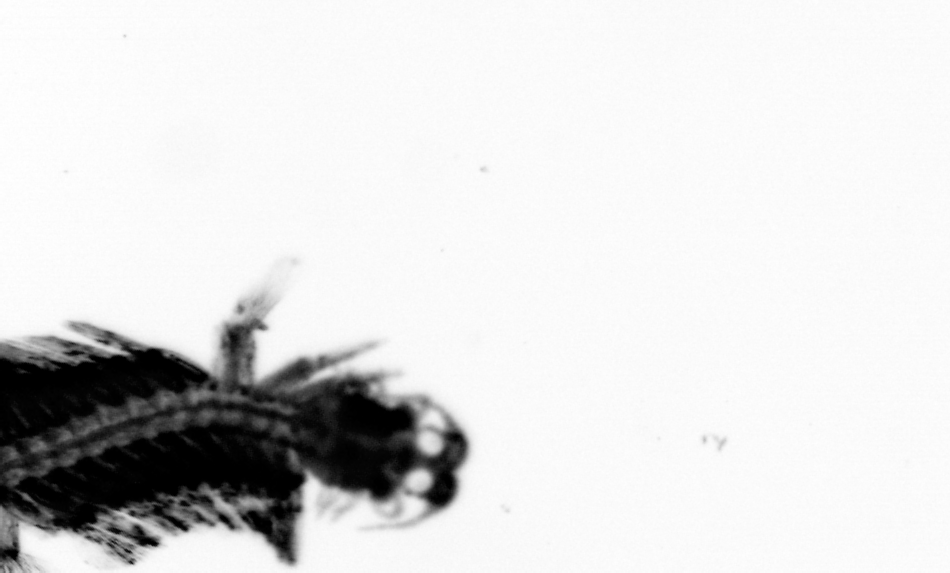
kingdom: Animalia
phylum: Annelida
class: Polychaeta
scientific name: Polychaeta
